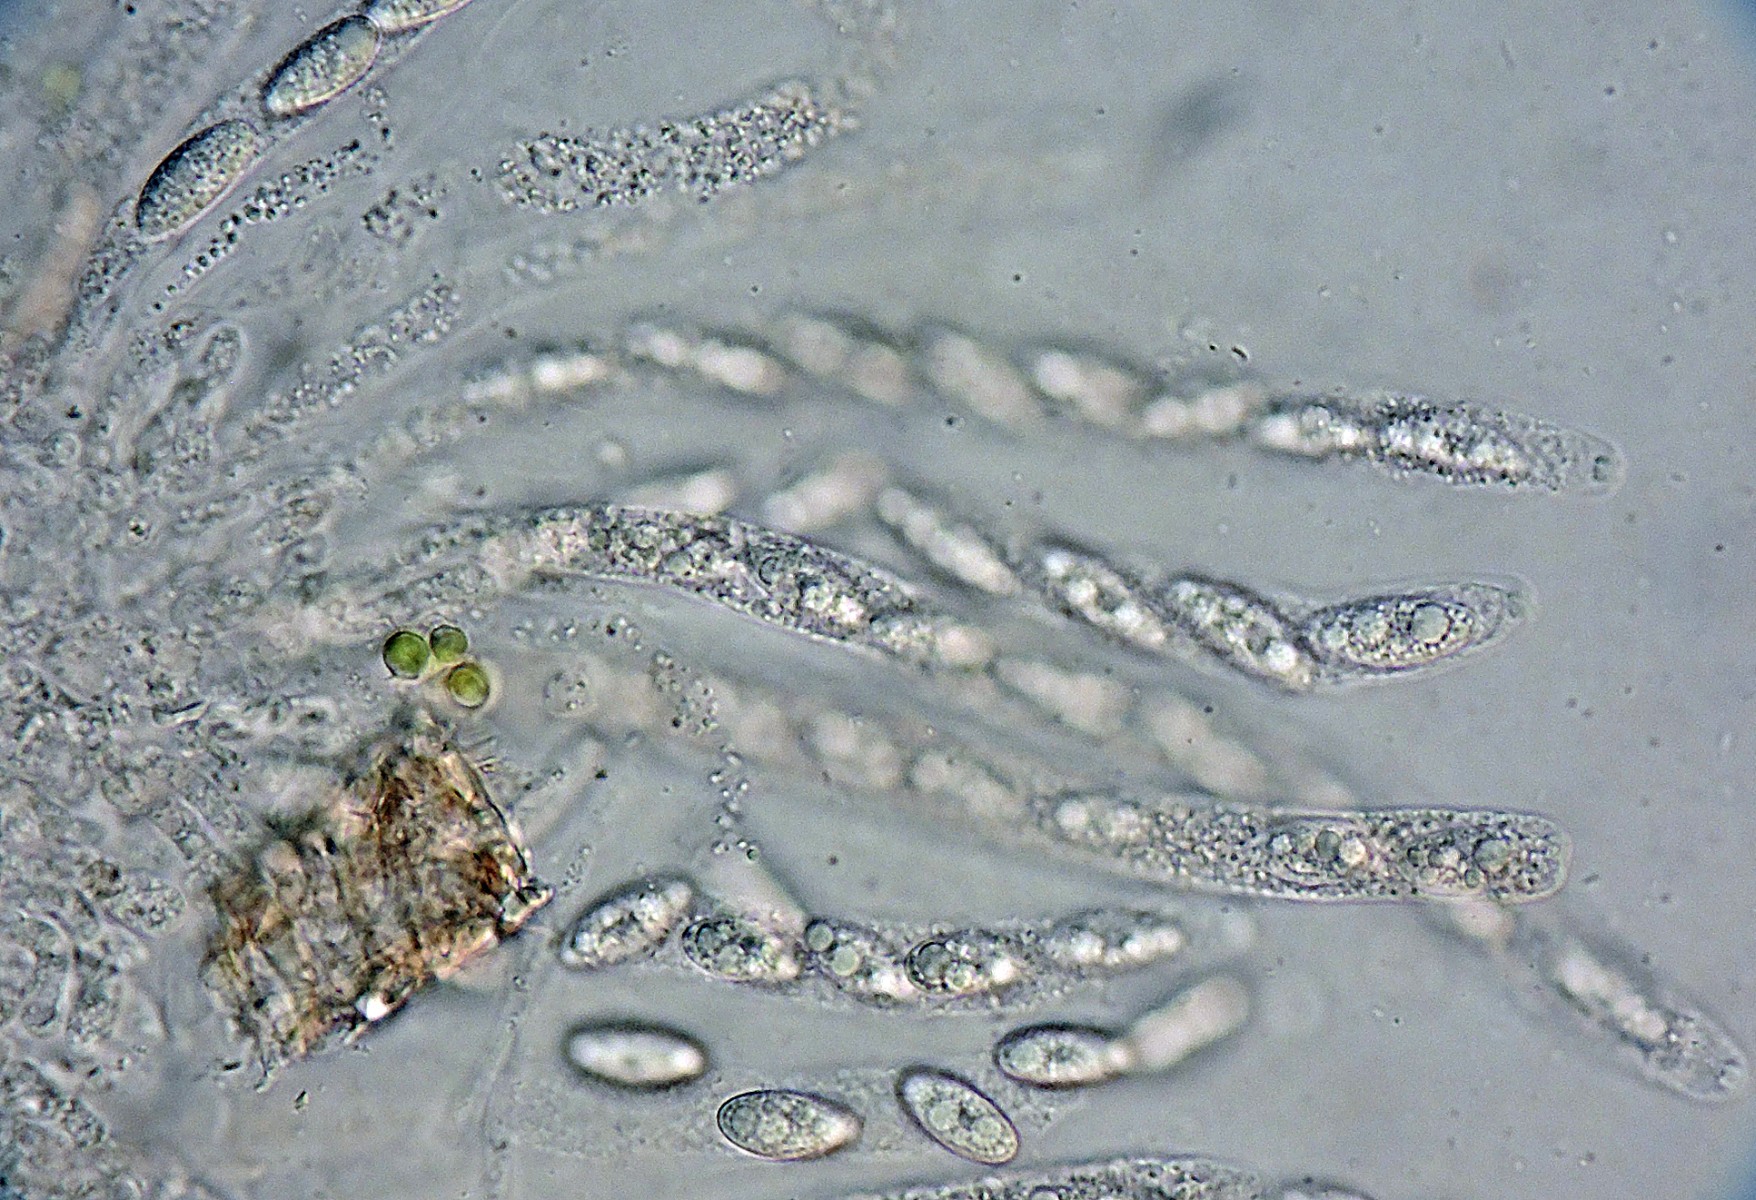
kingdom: Fungi
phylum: Ascomycota
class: Sordariomycetes
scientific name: Sordariomycetes
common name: kernesvampklassen
